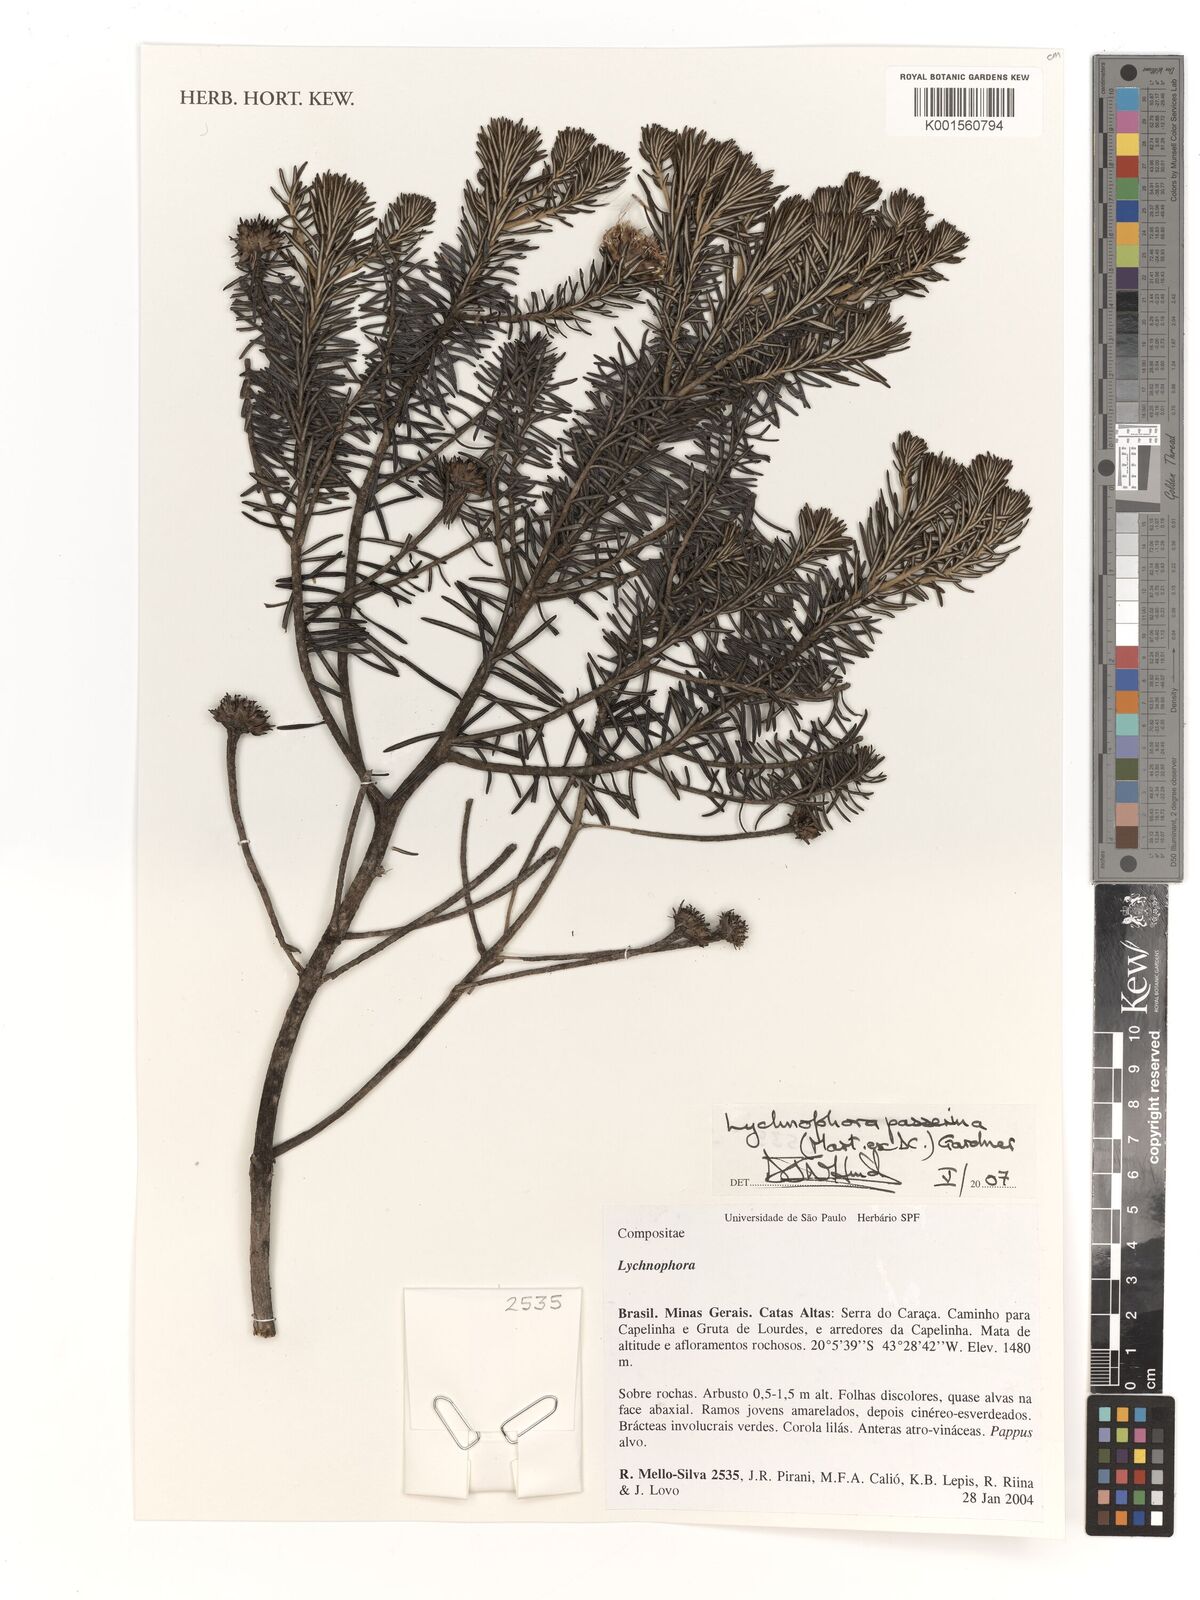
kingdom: Plantae
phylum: Tracheophyta
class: Magnoliopsida
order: Asterales
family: Asteraceae
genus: Lychnophora
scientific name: Lychnophora passerina
